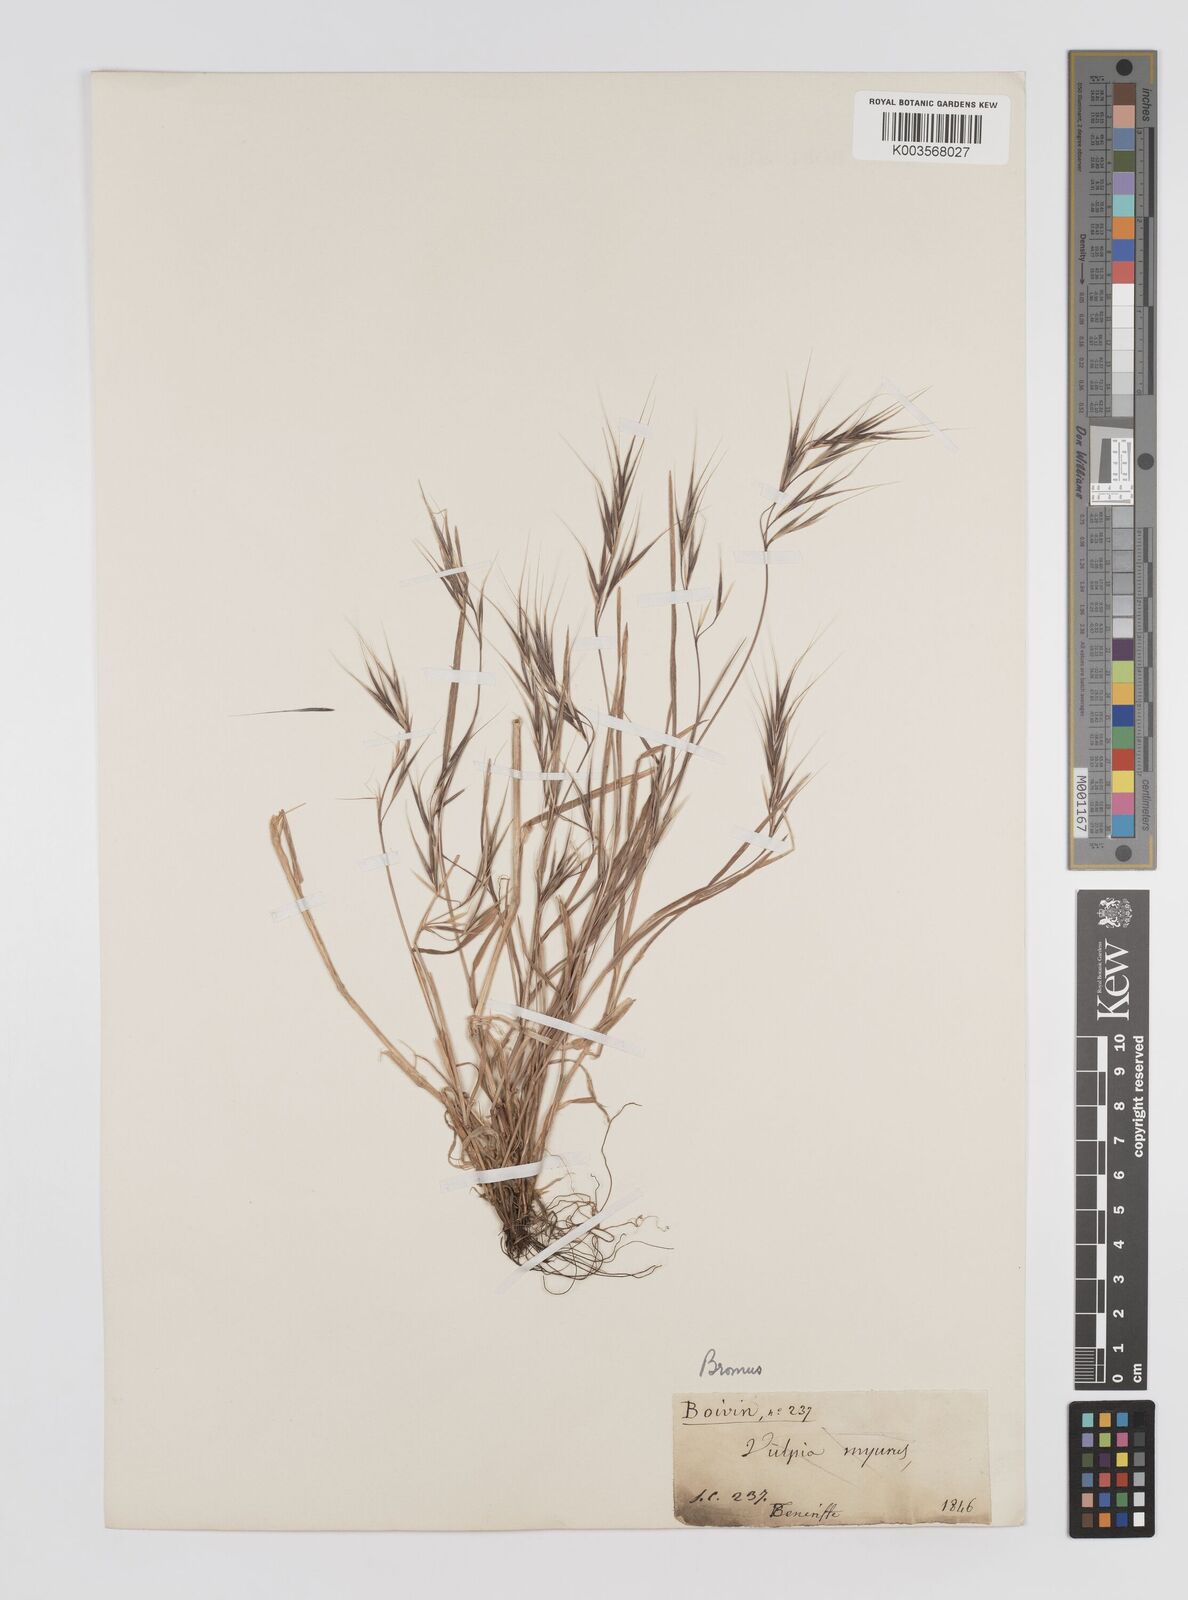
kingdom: Plantae
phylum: Tracheophyta
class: Liliopsida
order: Poales
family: Poaceae
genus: Bromus
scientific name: Bromus
